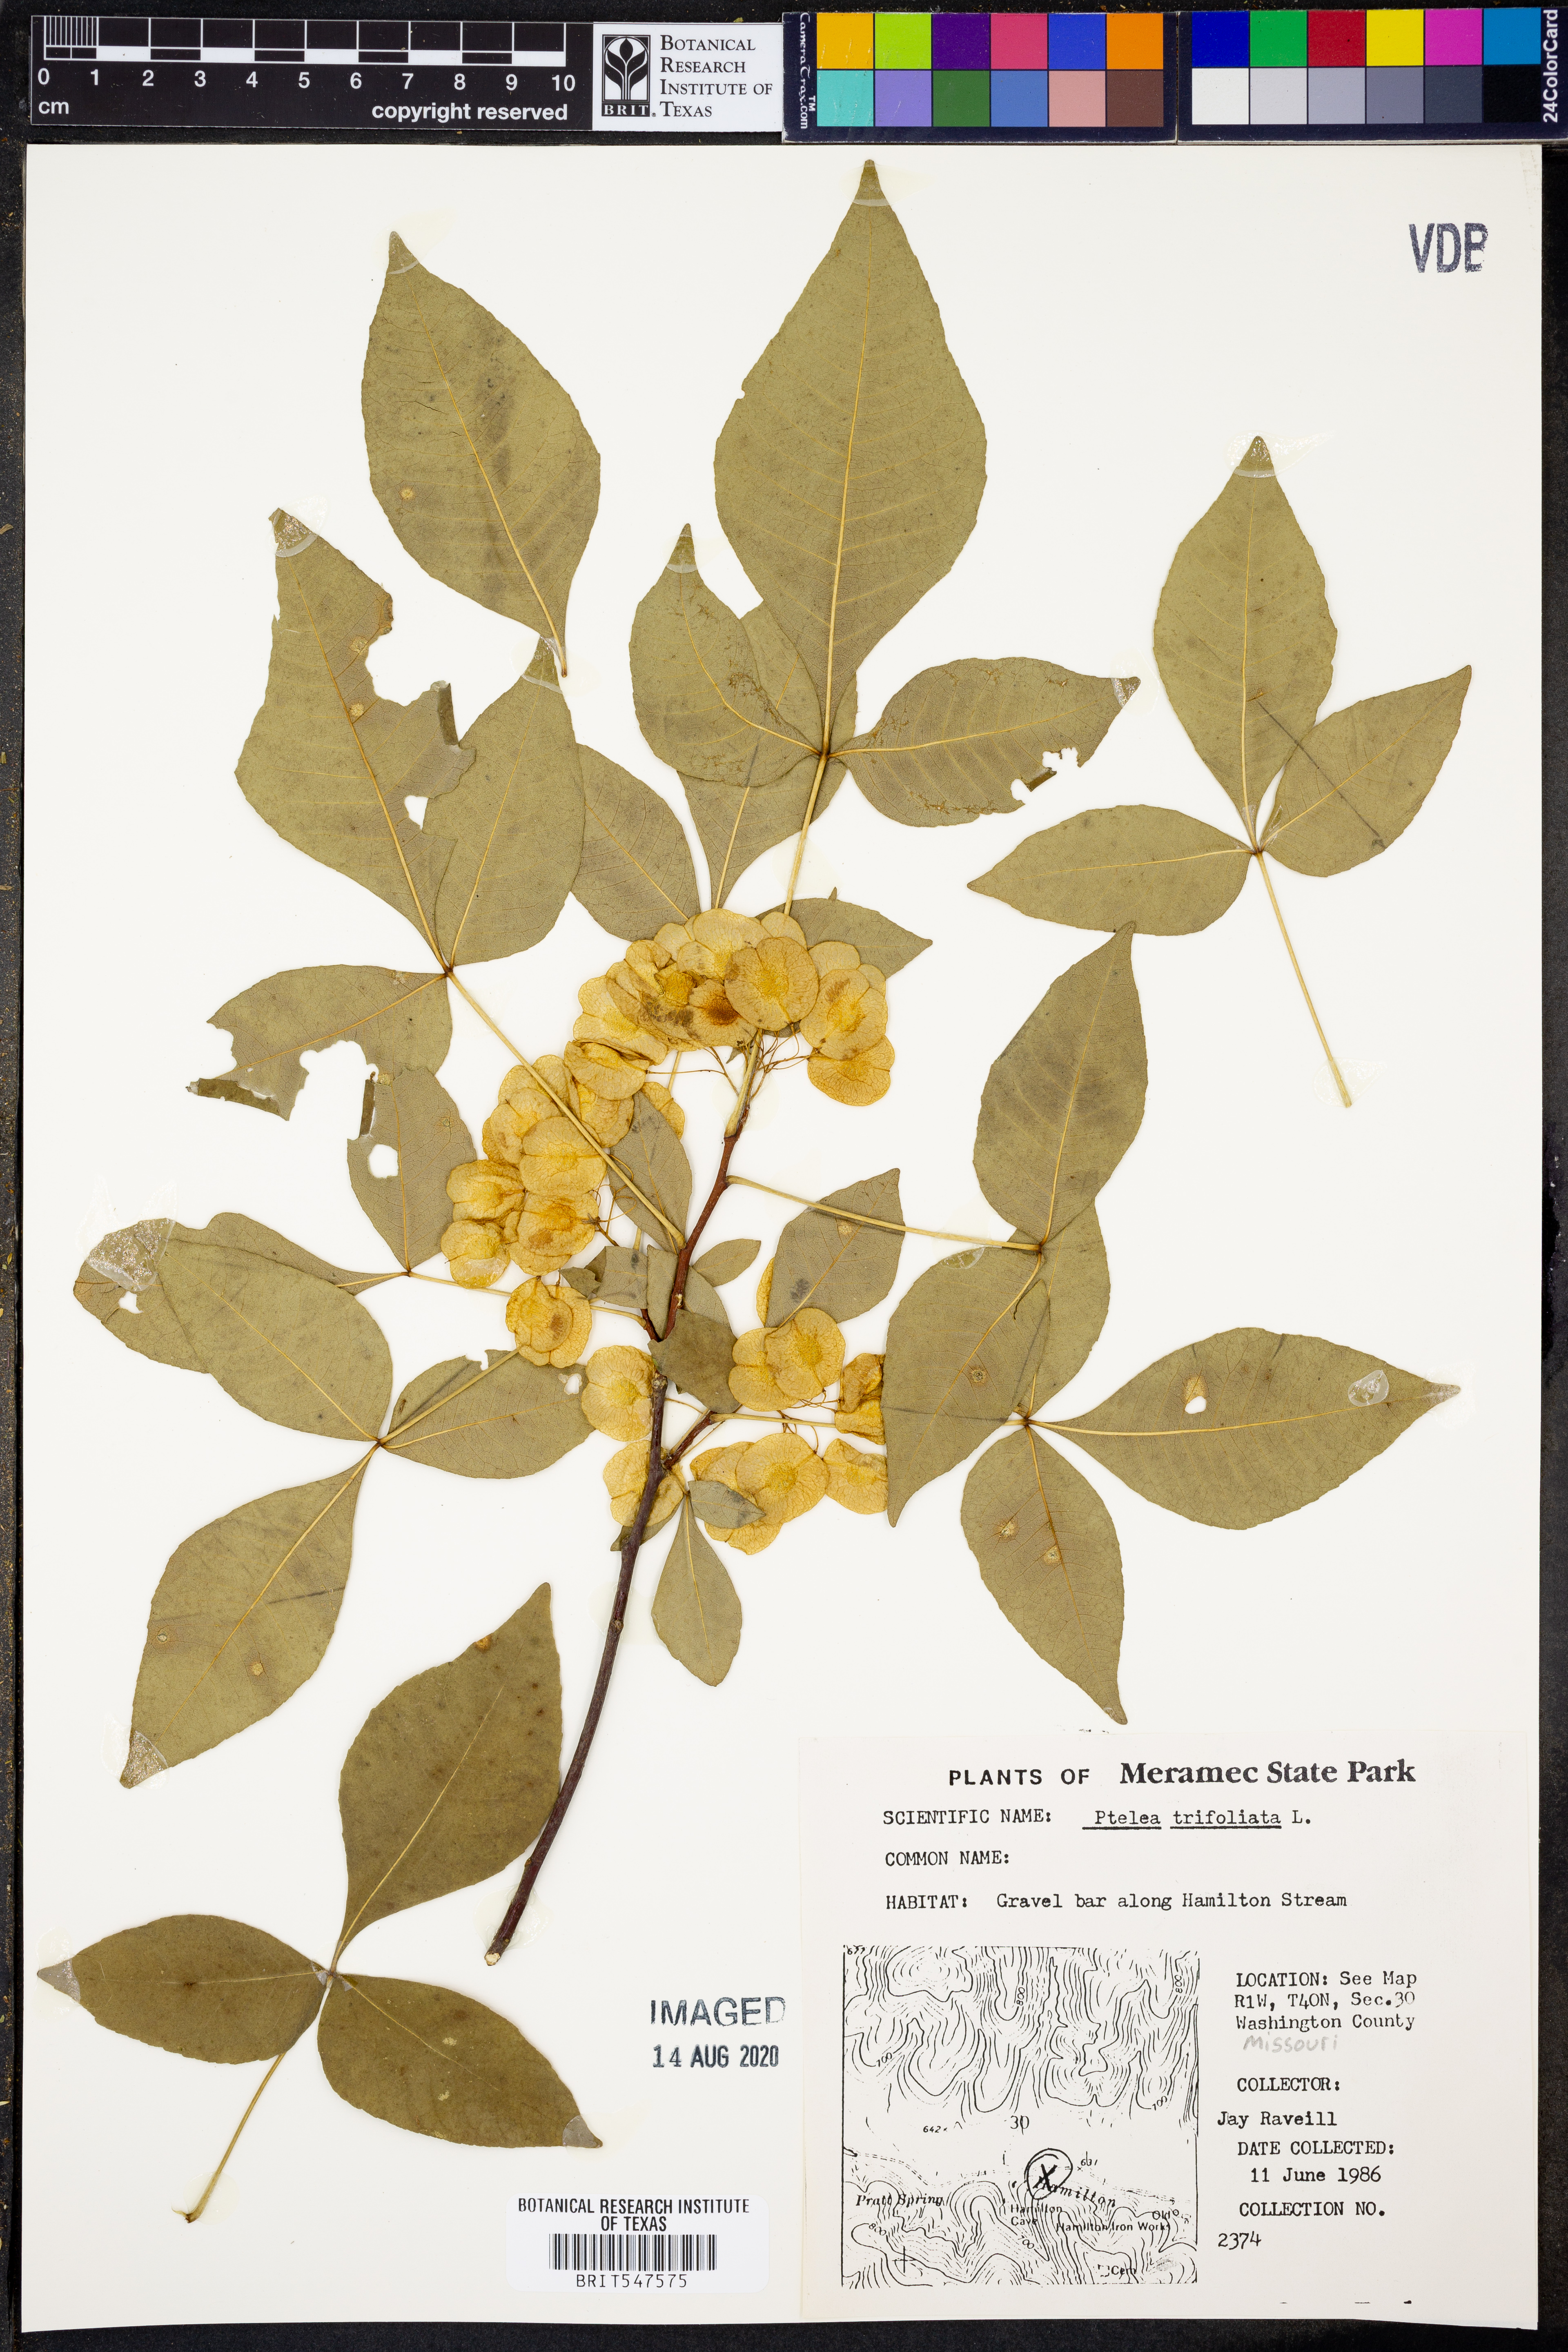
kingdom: Plantae
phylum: Tracheophyta
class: Magnoliopsida
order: Sapindales
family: Rutaceae
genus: Ptelea
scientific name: Ptelea trifoliata
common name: Common hop-tree
